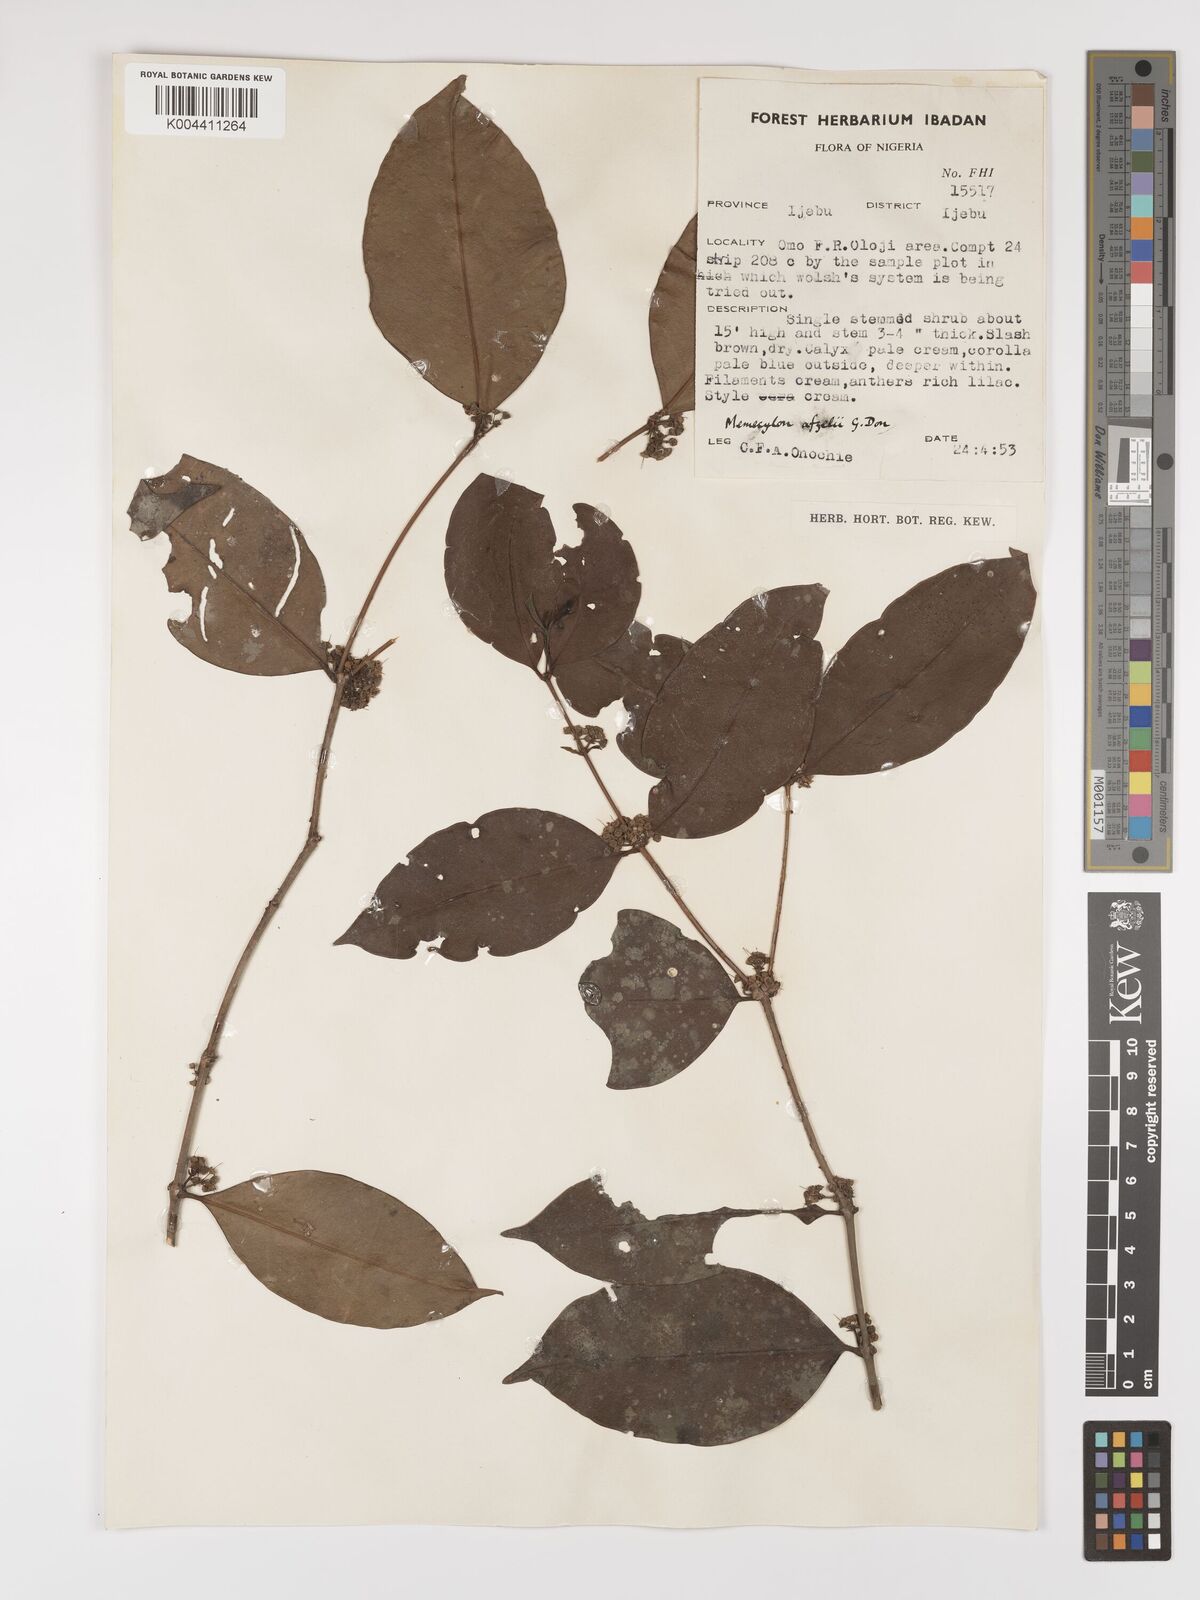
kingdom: Plantae
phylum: Tracheophyta
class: Magnoliopsida
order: Myrtales
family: Melastomataceae
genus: Memecylon
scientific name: Memecylon afzelii
